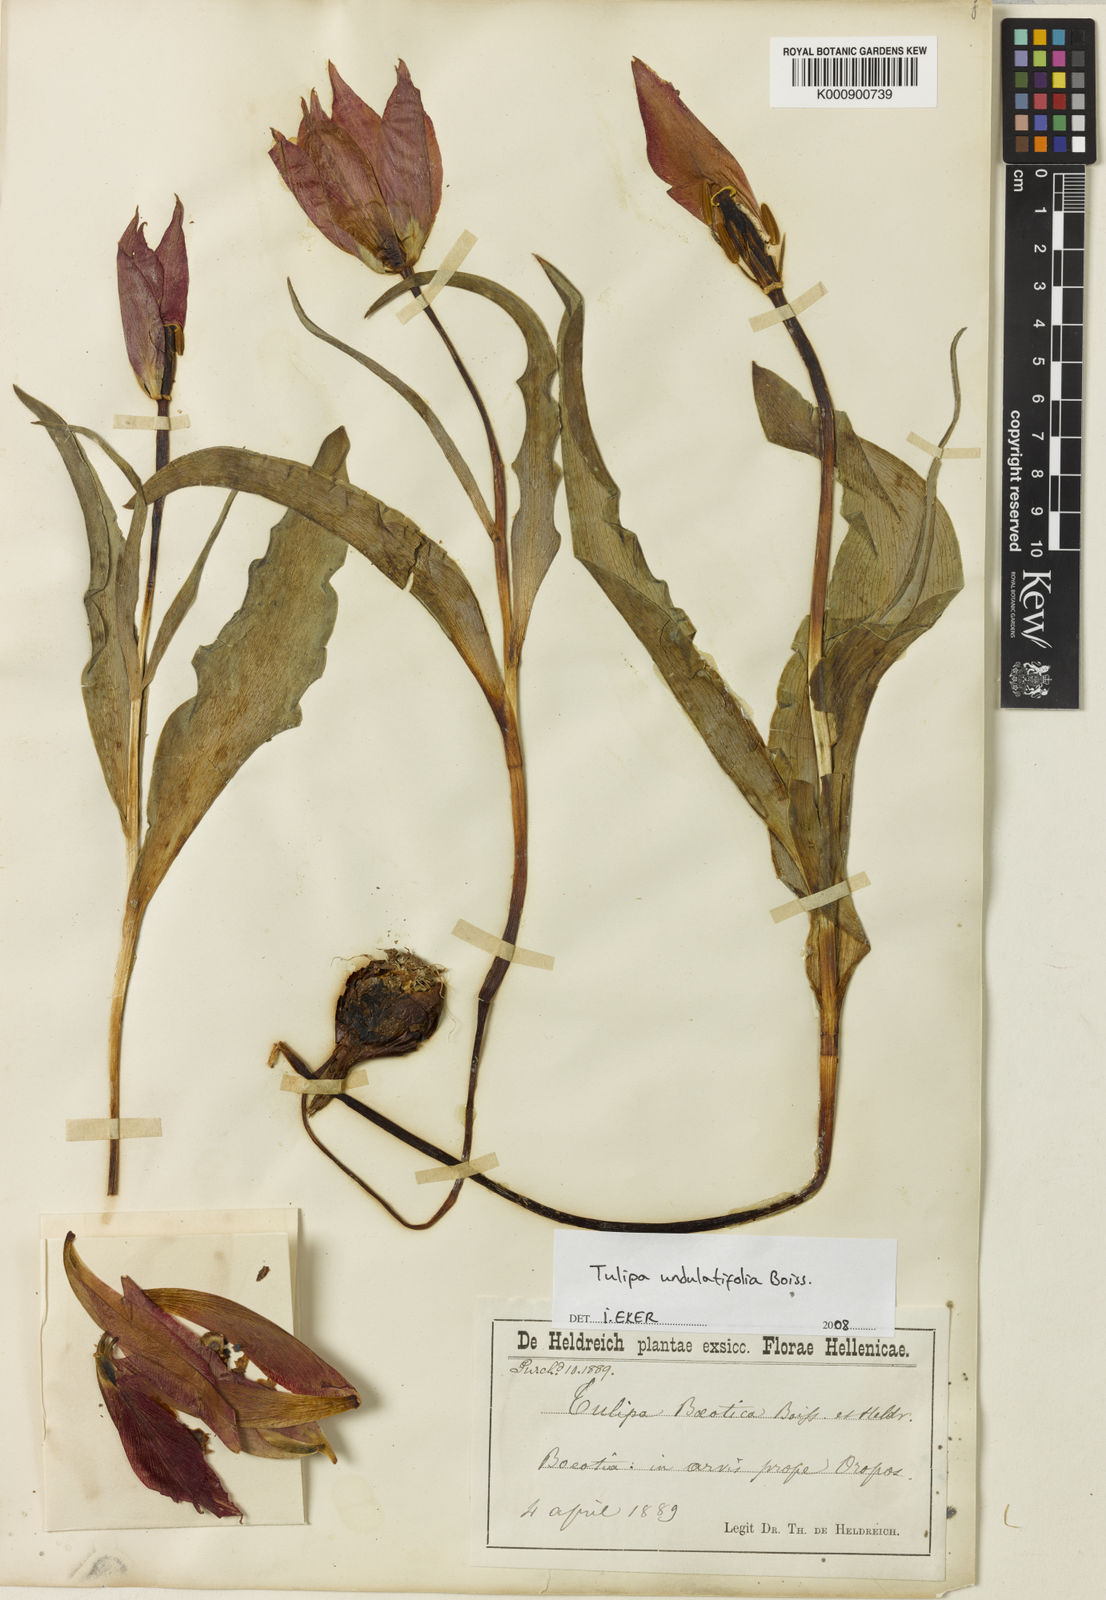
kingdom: Plantae
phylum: Tracheophyta
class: Liliopsida
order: Liliales
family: Liliaceae
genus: Tulipa
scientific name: Tulipa undulatifolia
